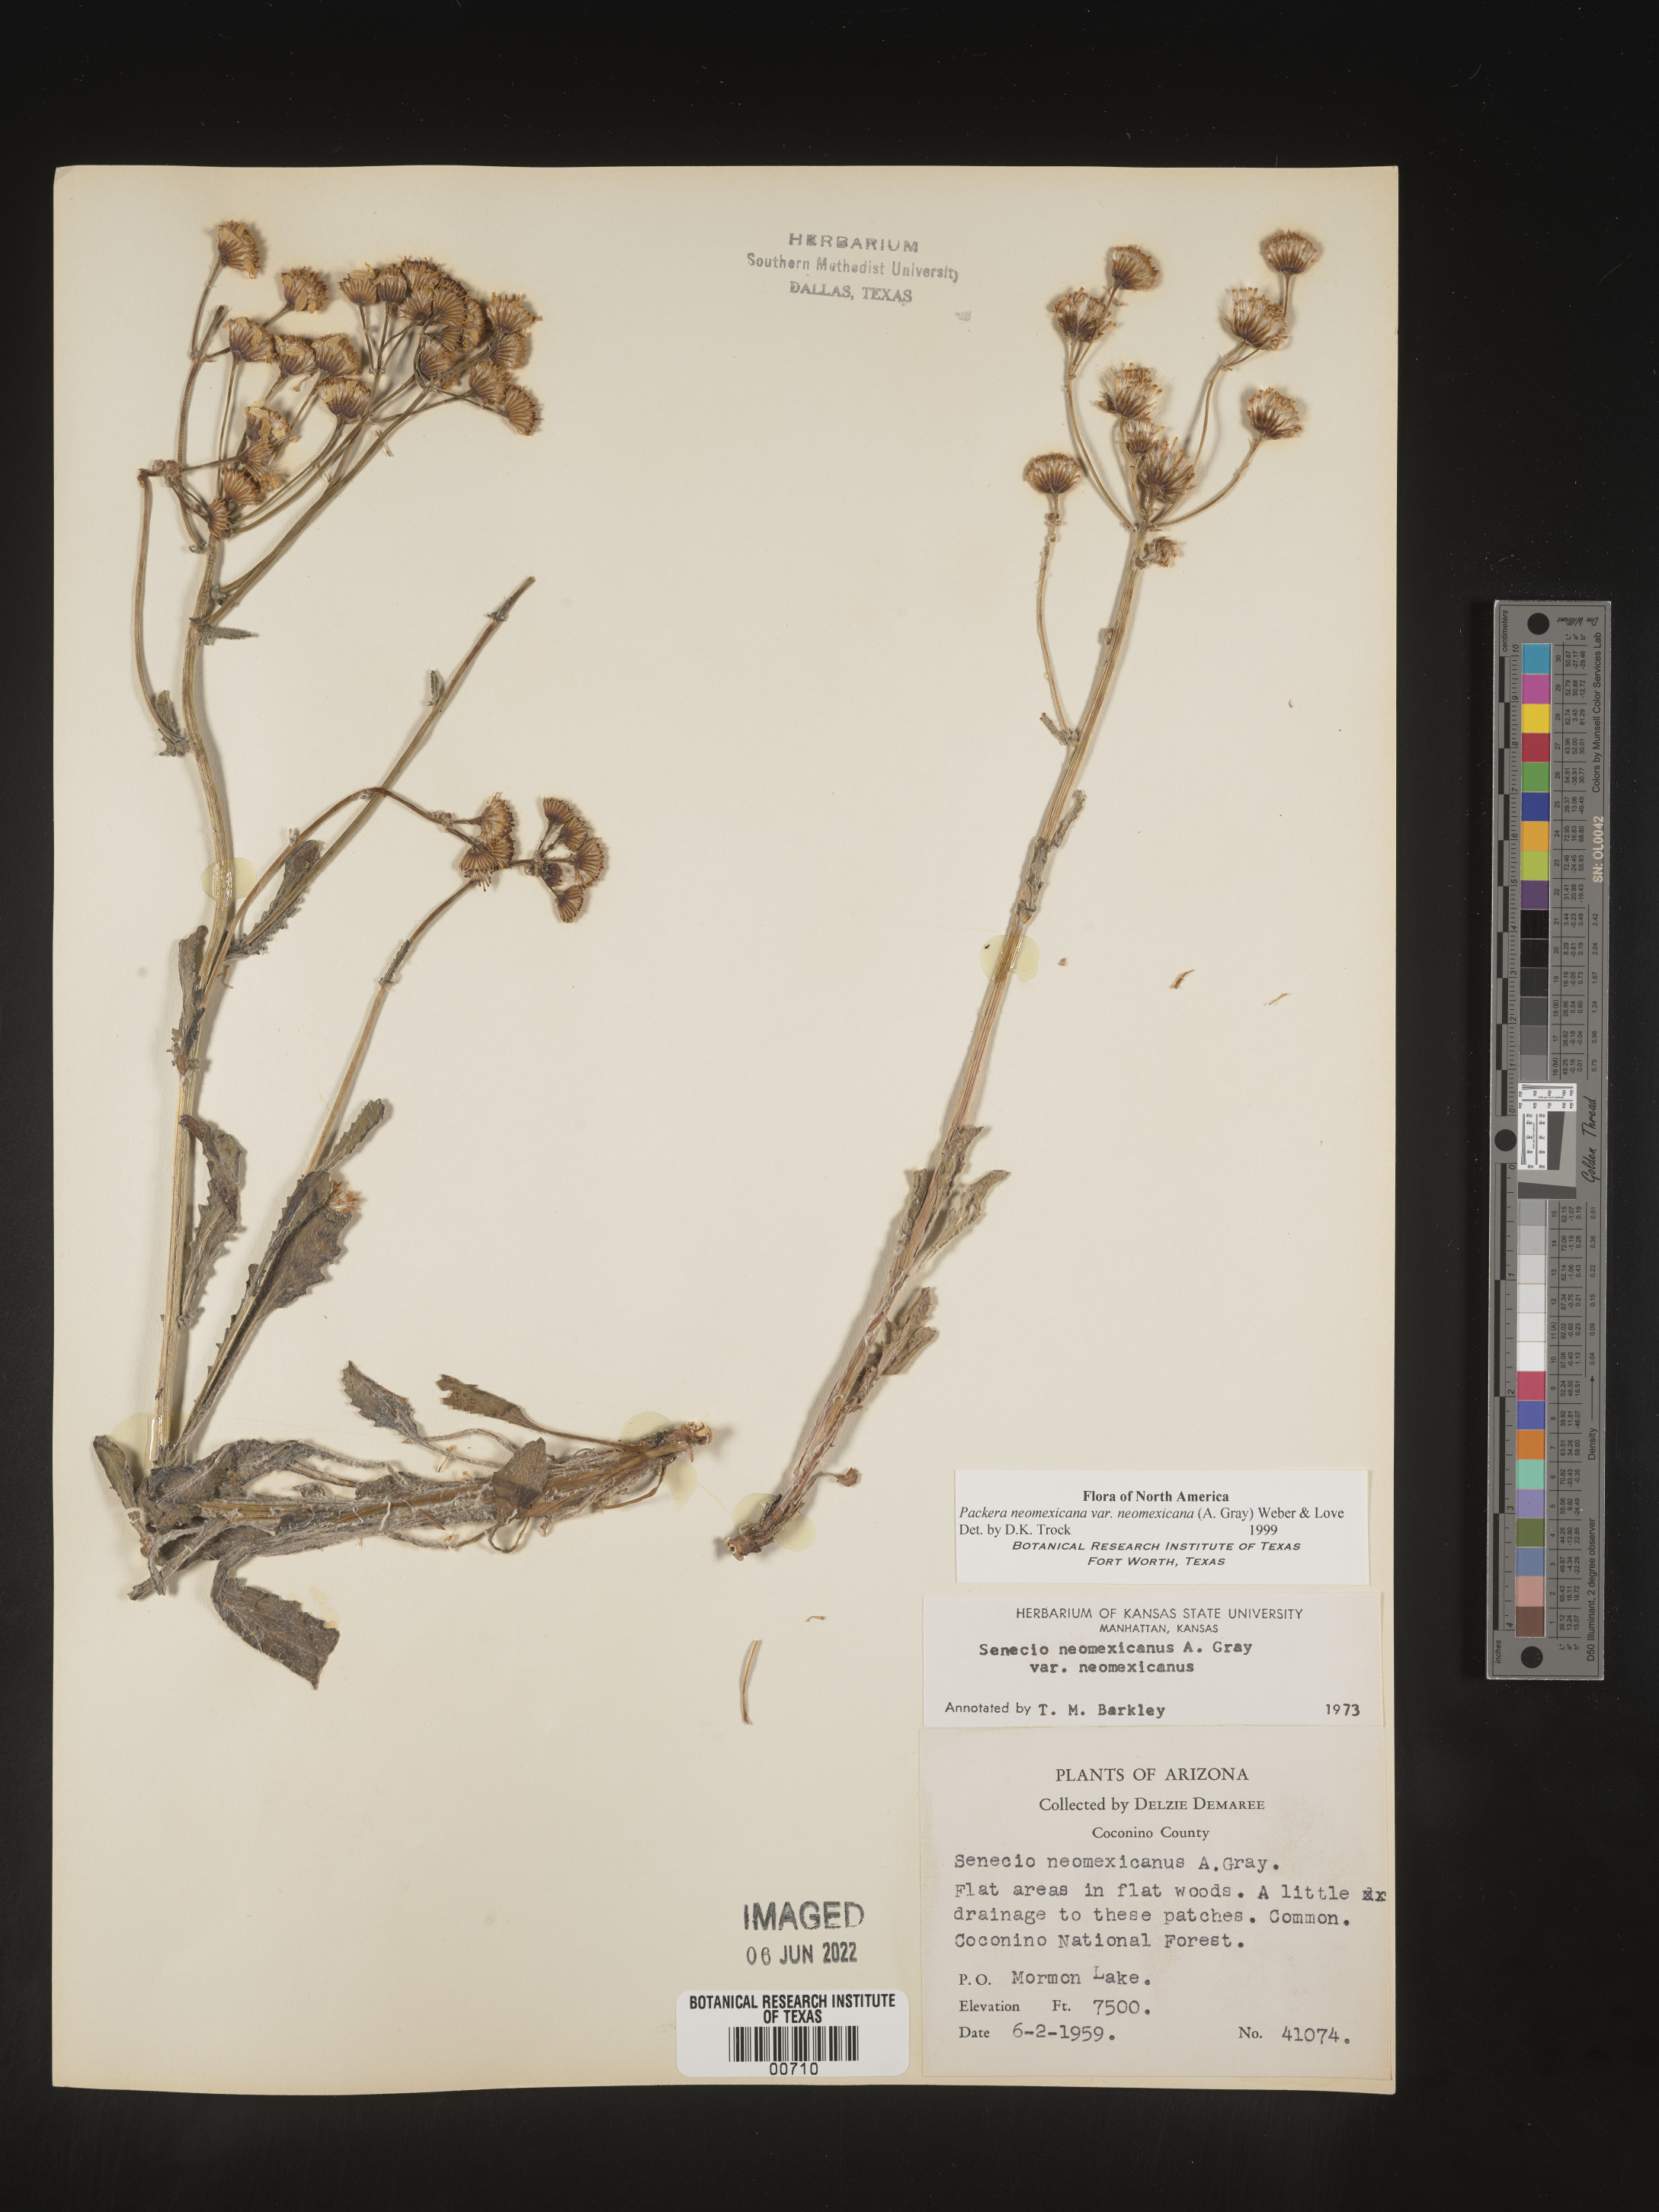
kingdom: Plantae
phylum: Tracheophyta
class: Magnoliopsida
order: Asterales
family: Asteraceae
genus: Packera
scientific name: Packera neomexicana
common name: New mexico butterweed
